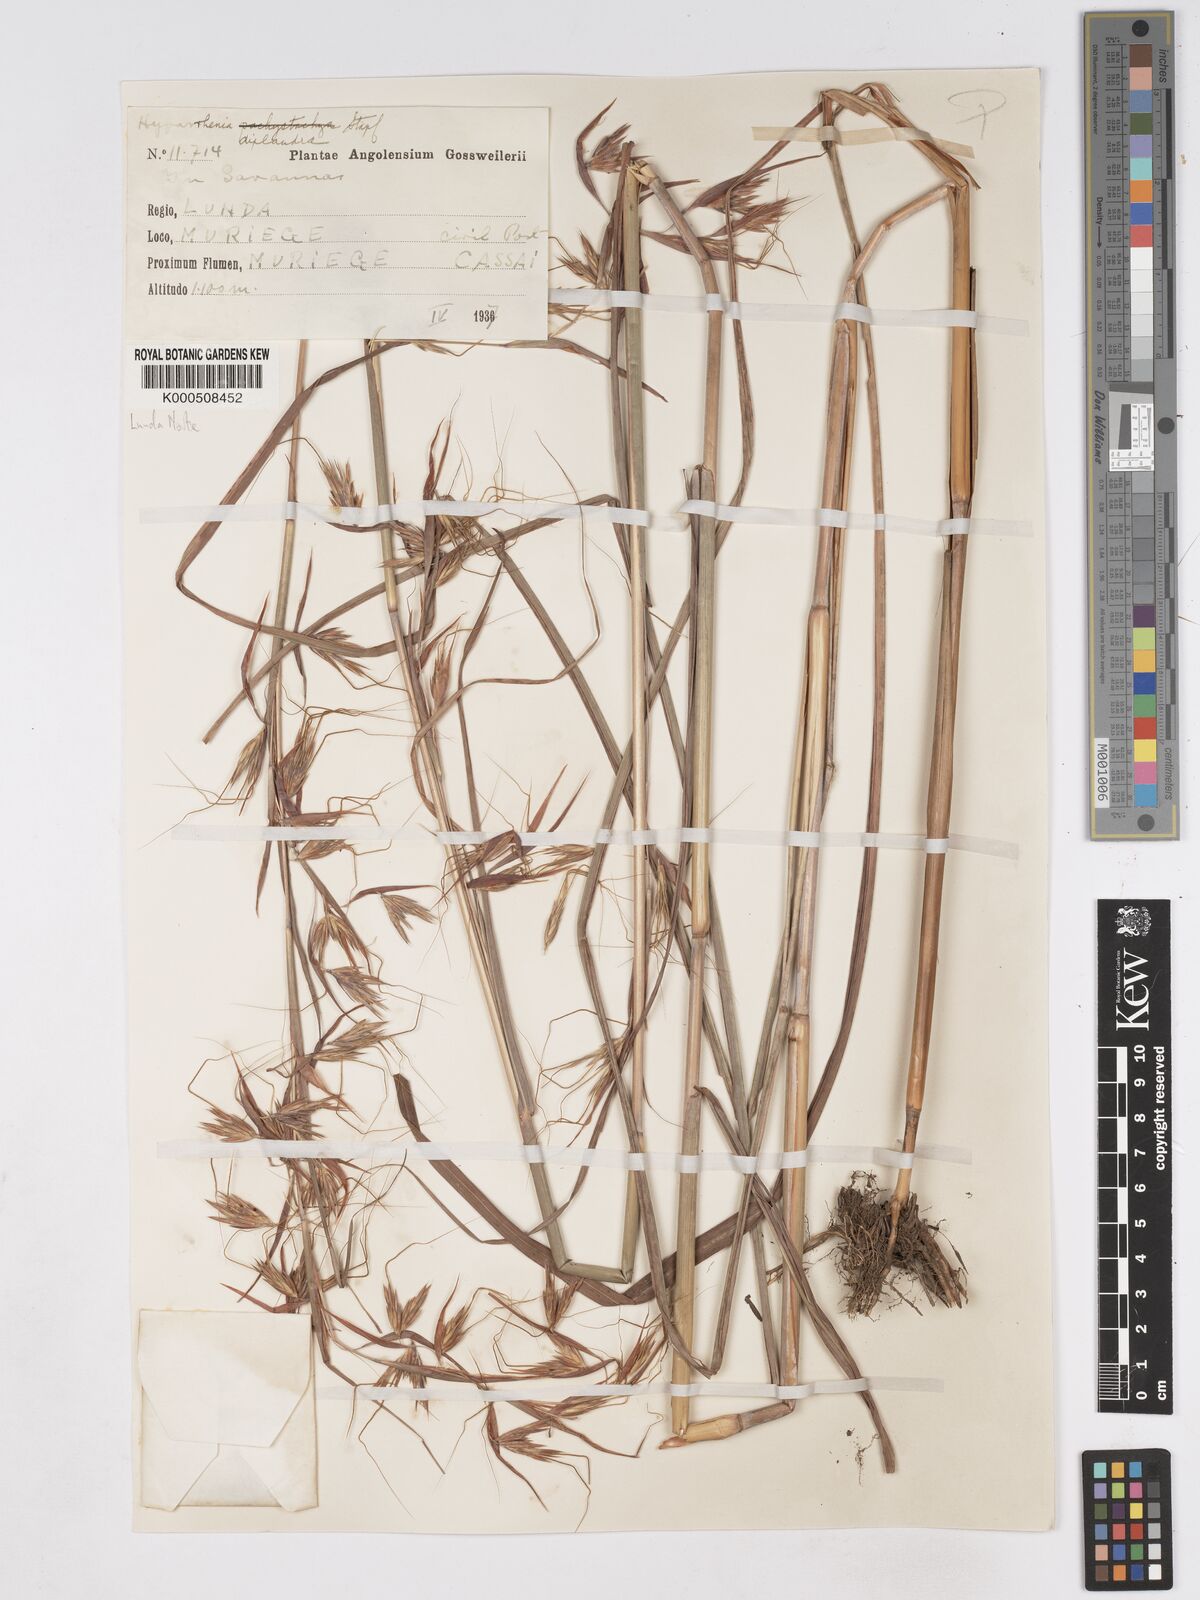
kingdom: Plantae
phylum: Tracheophyta
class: Liliopsida
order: Poales
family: Poaceae
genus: Hyparrhenia
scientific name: Hyparrhenia diplandra
